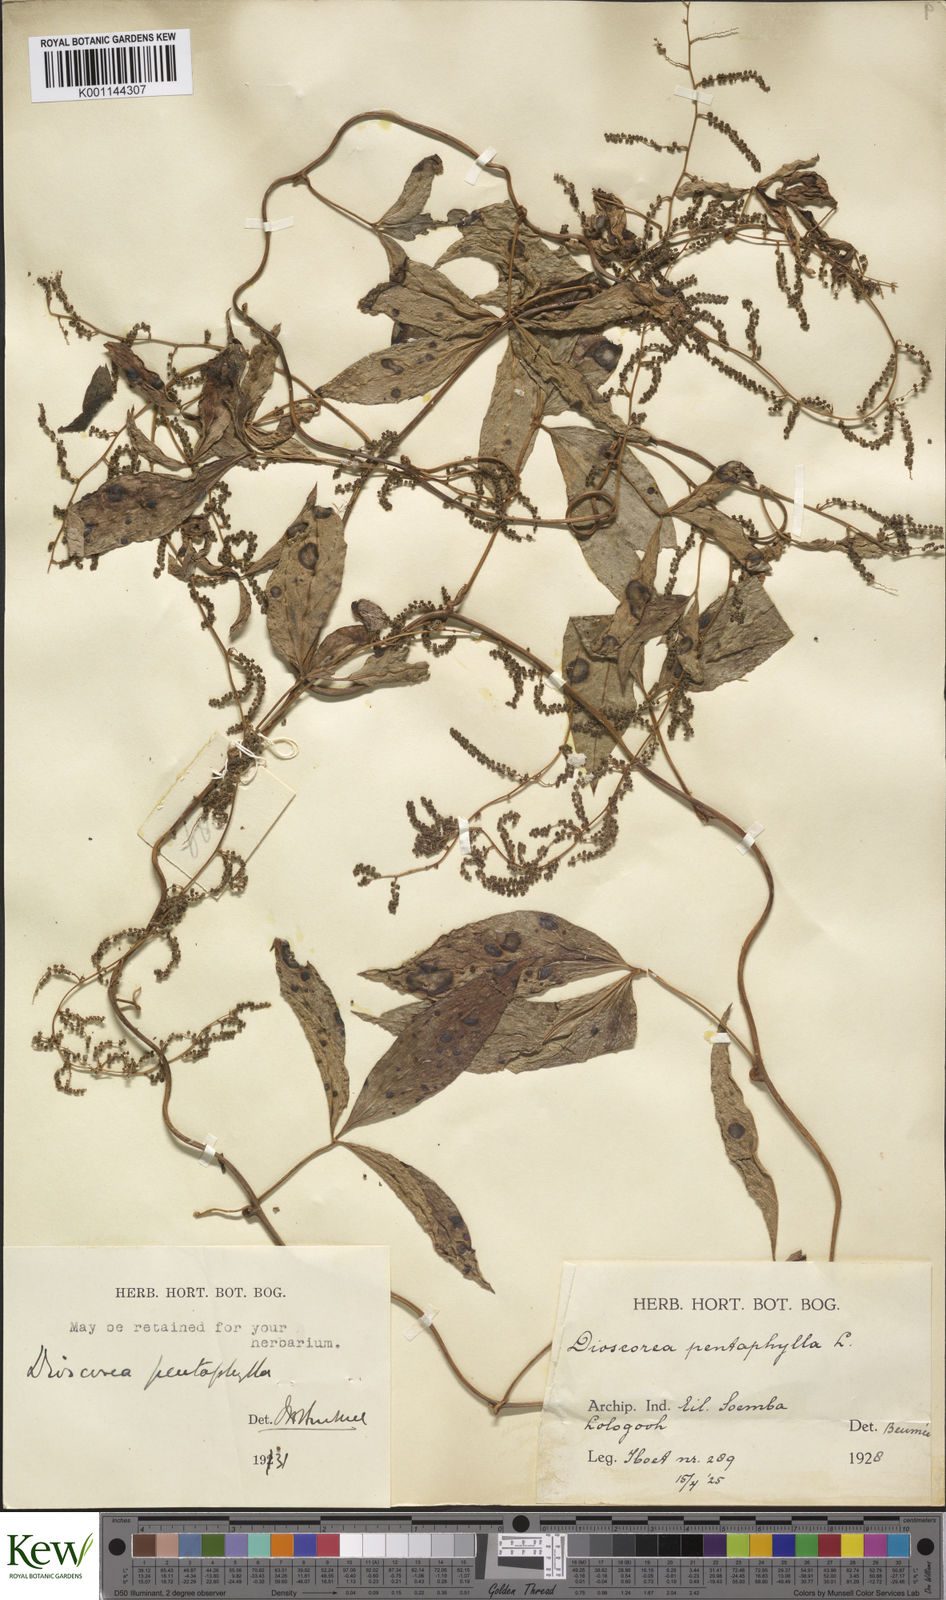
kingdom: Plantae
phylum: Tracheophyta
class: Liliopsida
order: Dioscoreales
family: Dioscoreaceae
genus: Dioscorea
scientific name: Dioscorea pentaphylla
